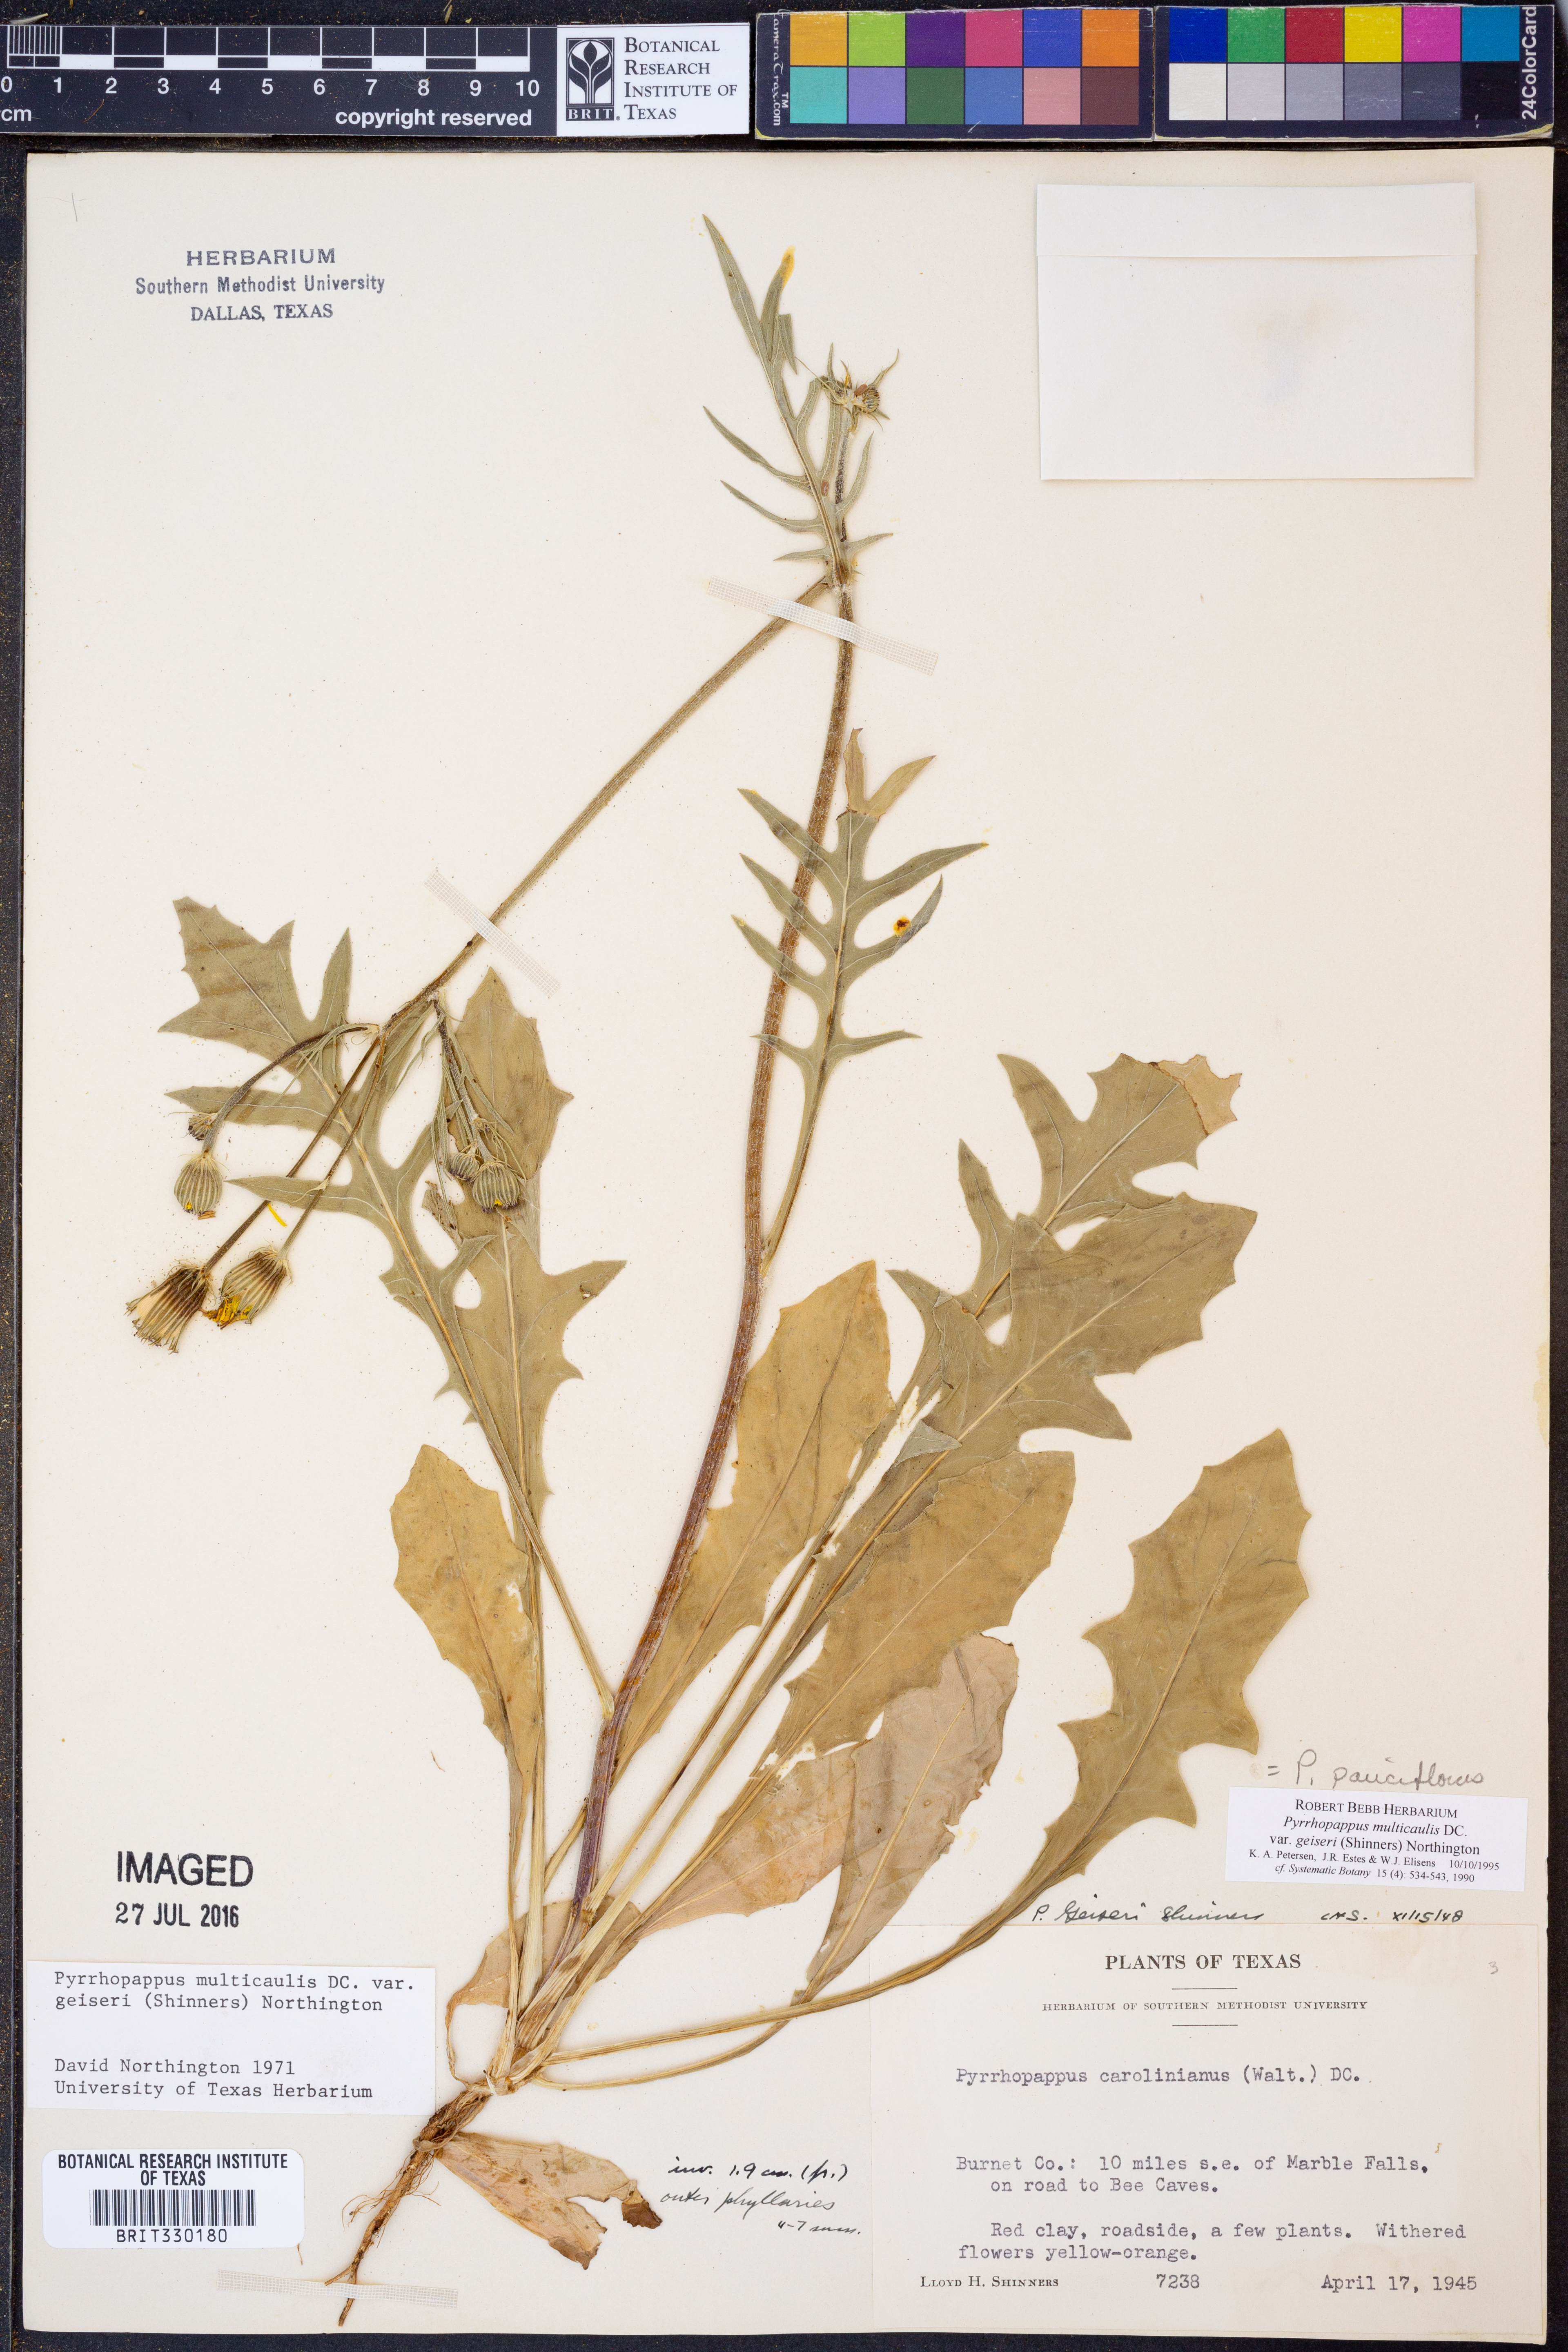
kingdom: Plantae
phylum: Tracheophyta
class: Magnoliopsida
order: Asterales
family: Asteraceae
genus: Pyrrhopappus
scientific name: Pyrrhopappus pauciflorus
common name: Texas false dandelion
